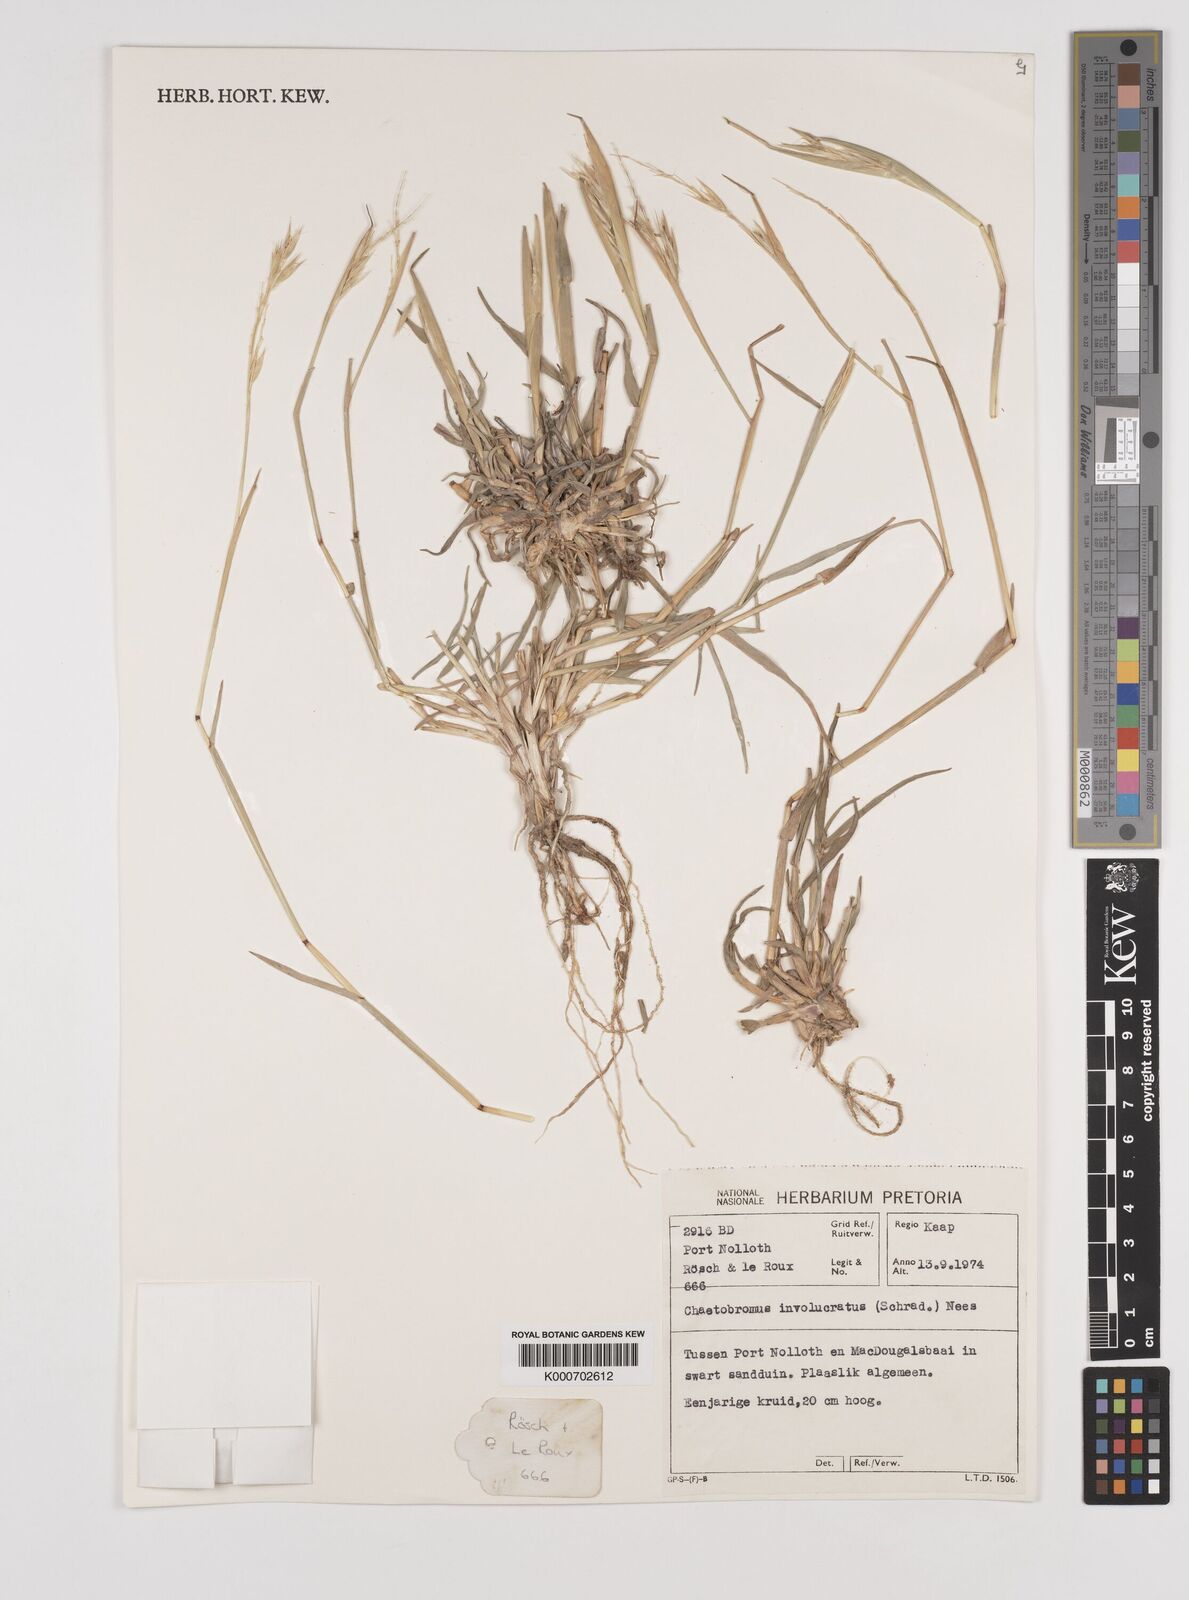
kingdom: Plantae
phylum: Tracheophyta
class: Liliopsida
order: Poales
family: Poaceae
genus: Chaetobromus
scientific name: Chaetobromus involucratus
